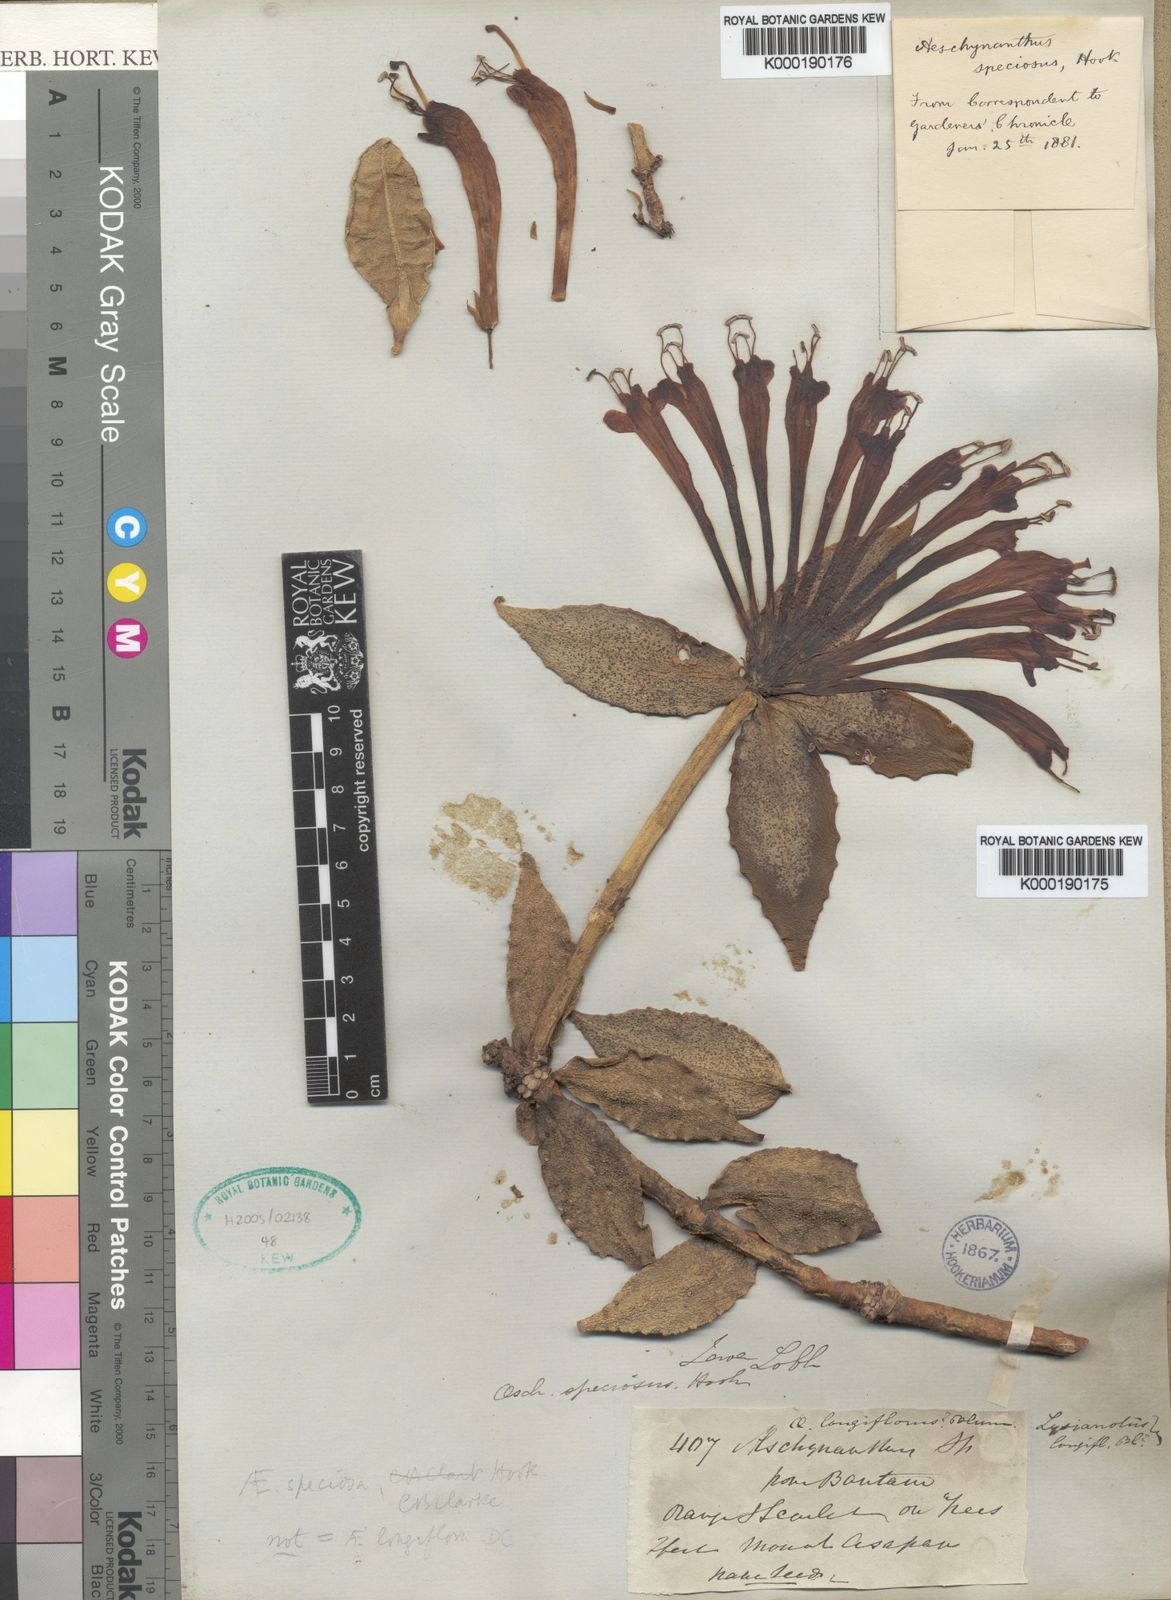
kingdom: Plantae
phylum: Tracheophyta
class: Magnoliopsida
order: Lamiales
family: Gesneriaceae
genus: Aeschynanthus
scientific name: Aeschynanthus speciosus
